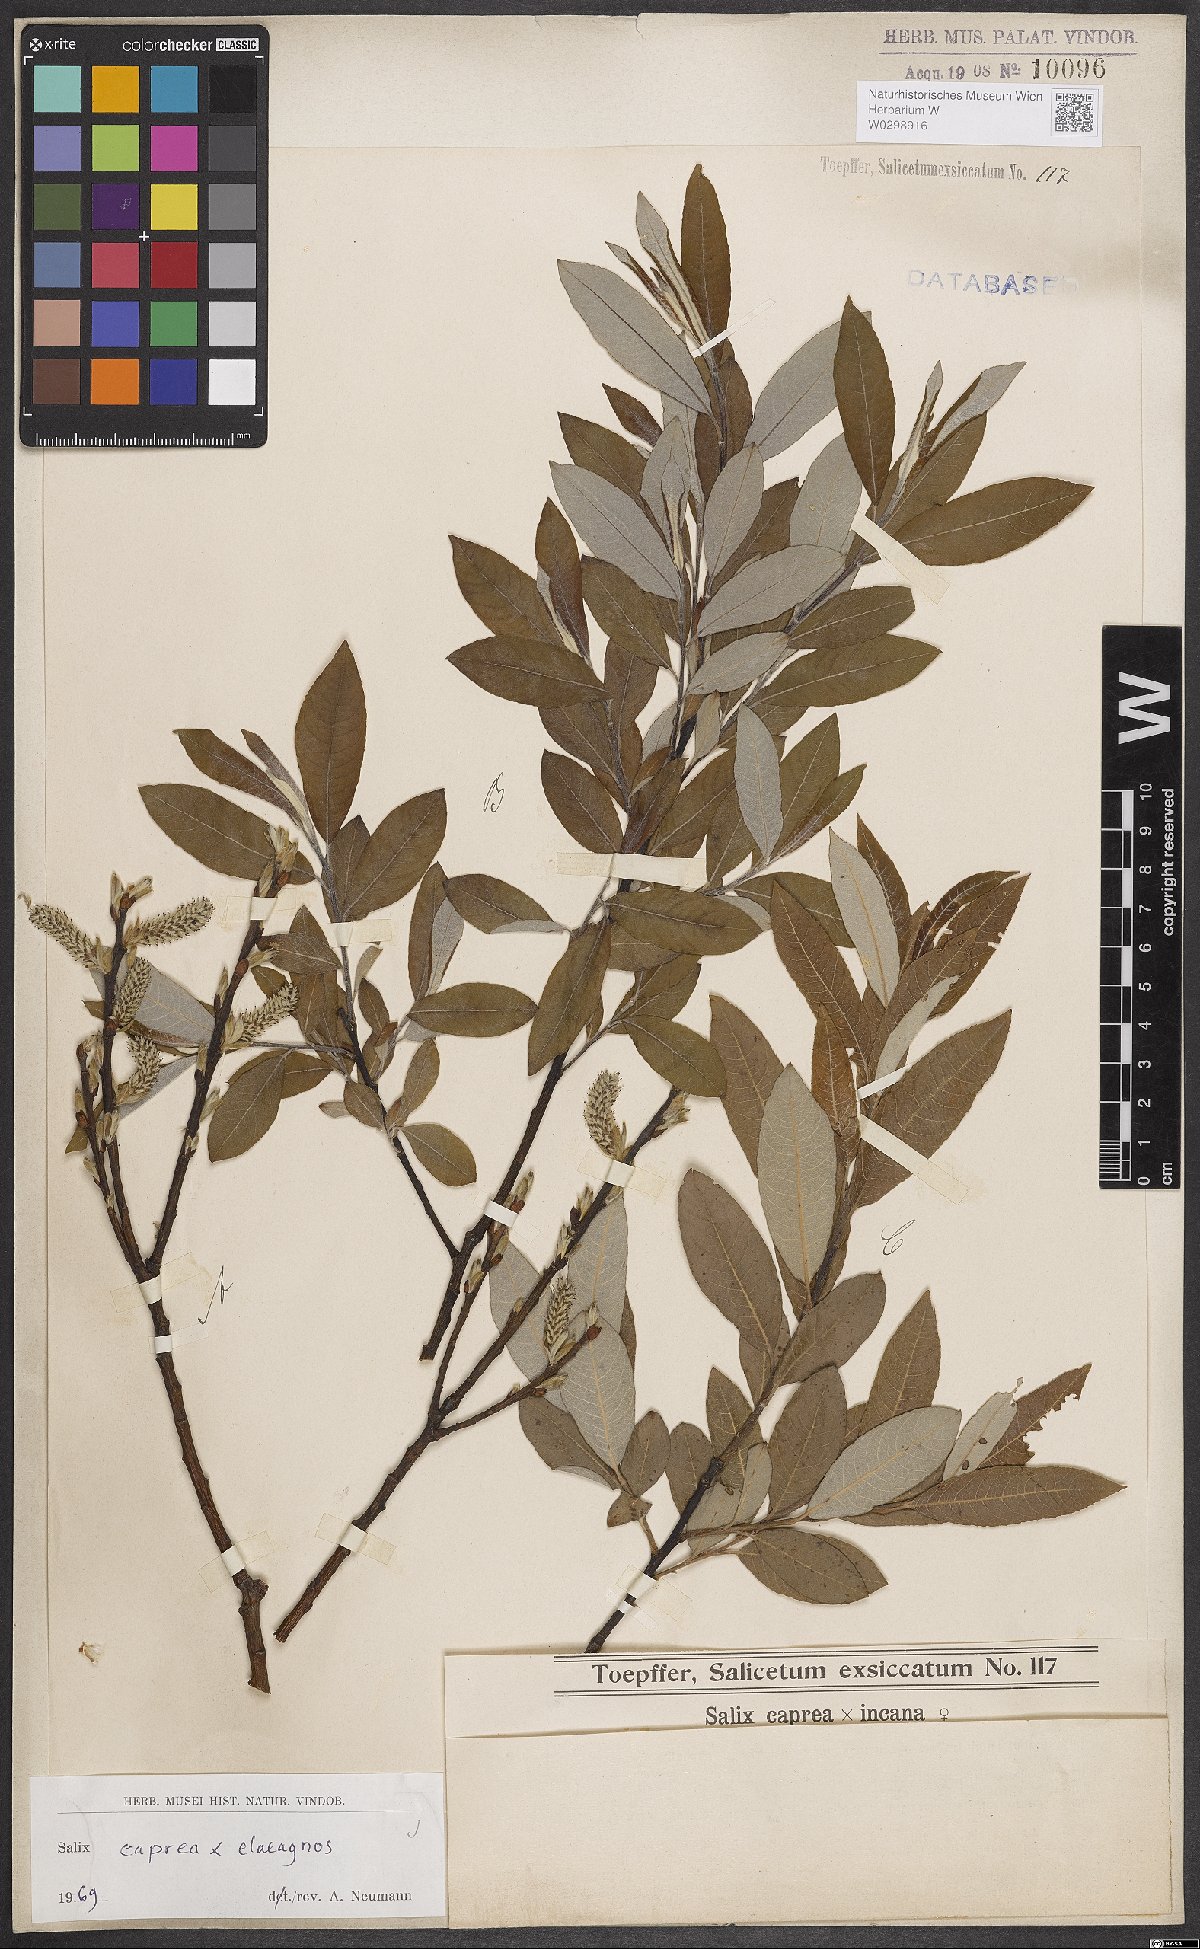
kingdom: Plantae
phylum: Tracheophyta
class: Magnoliopsida
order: Malpighiales
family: Salicaceae
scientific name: Salicaceae
